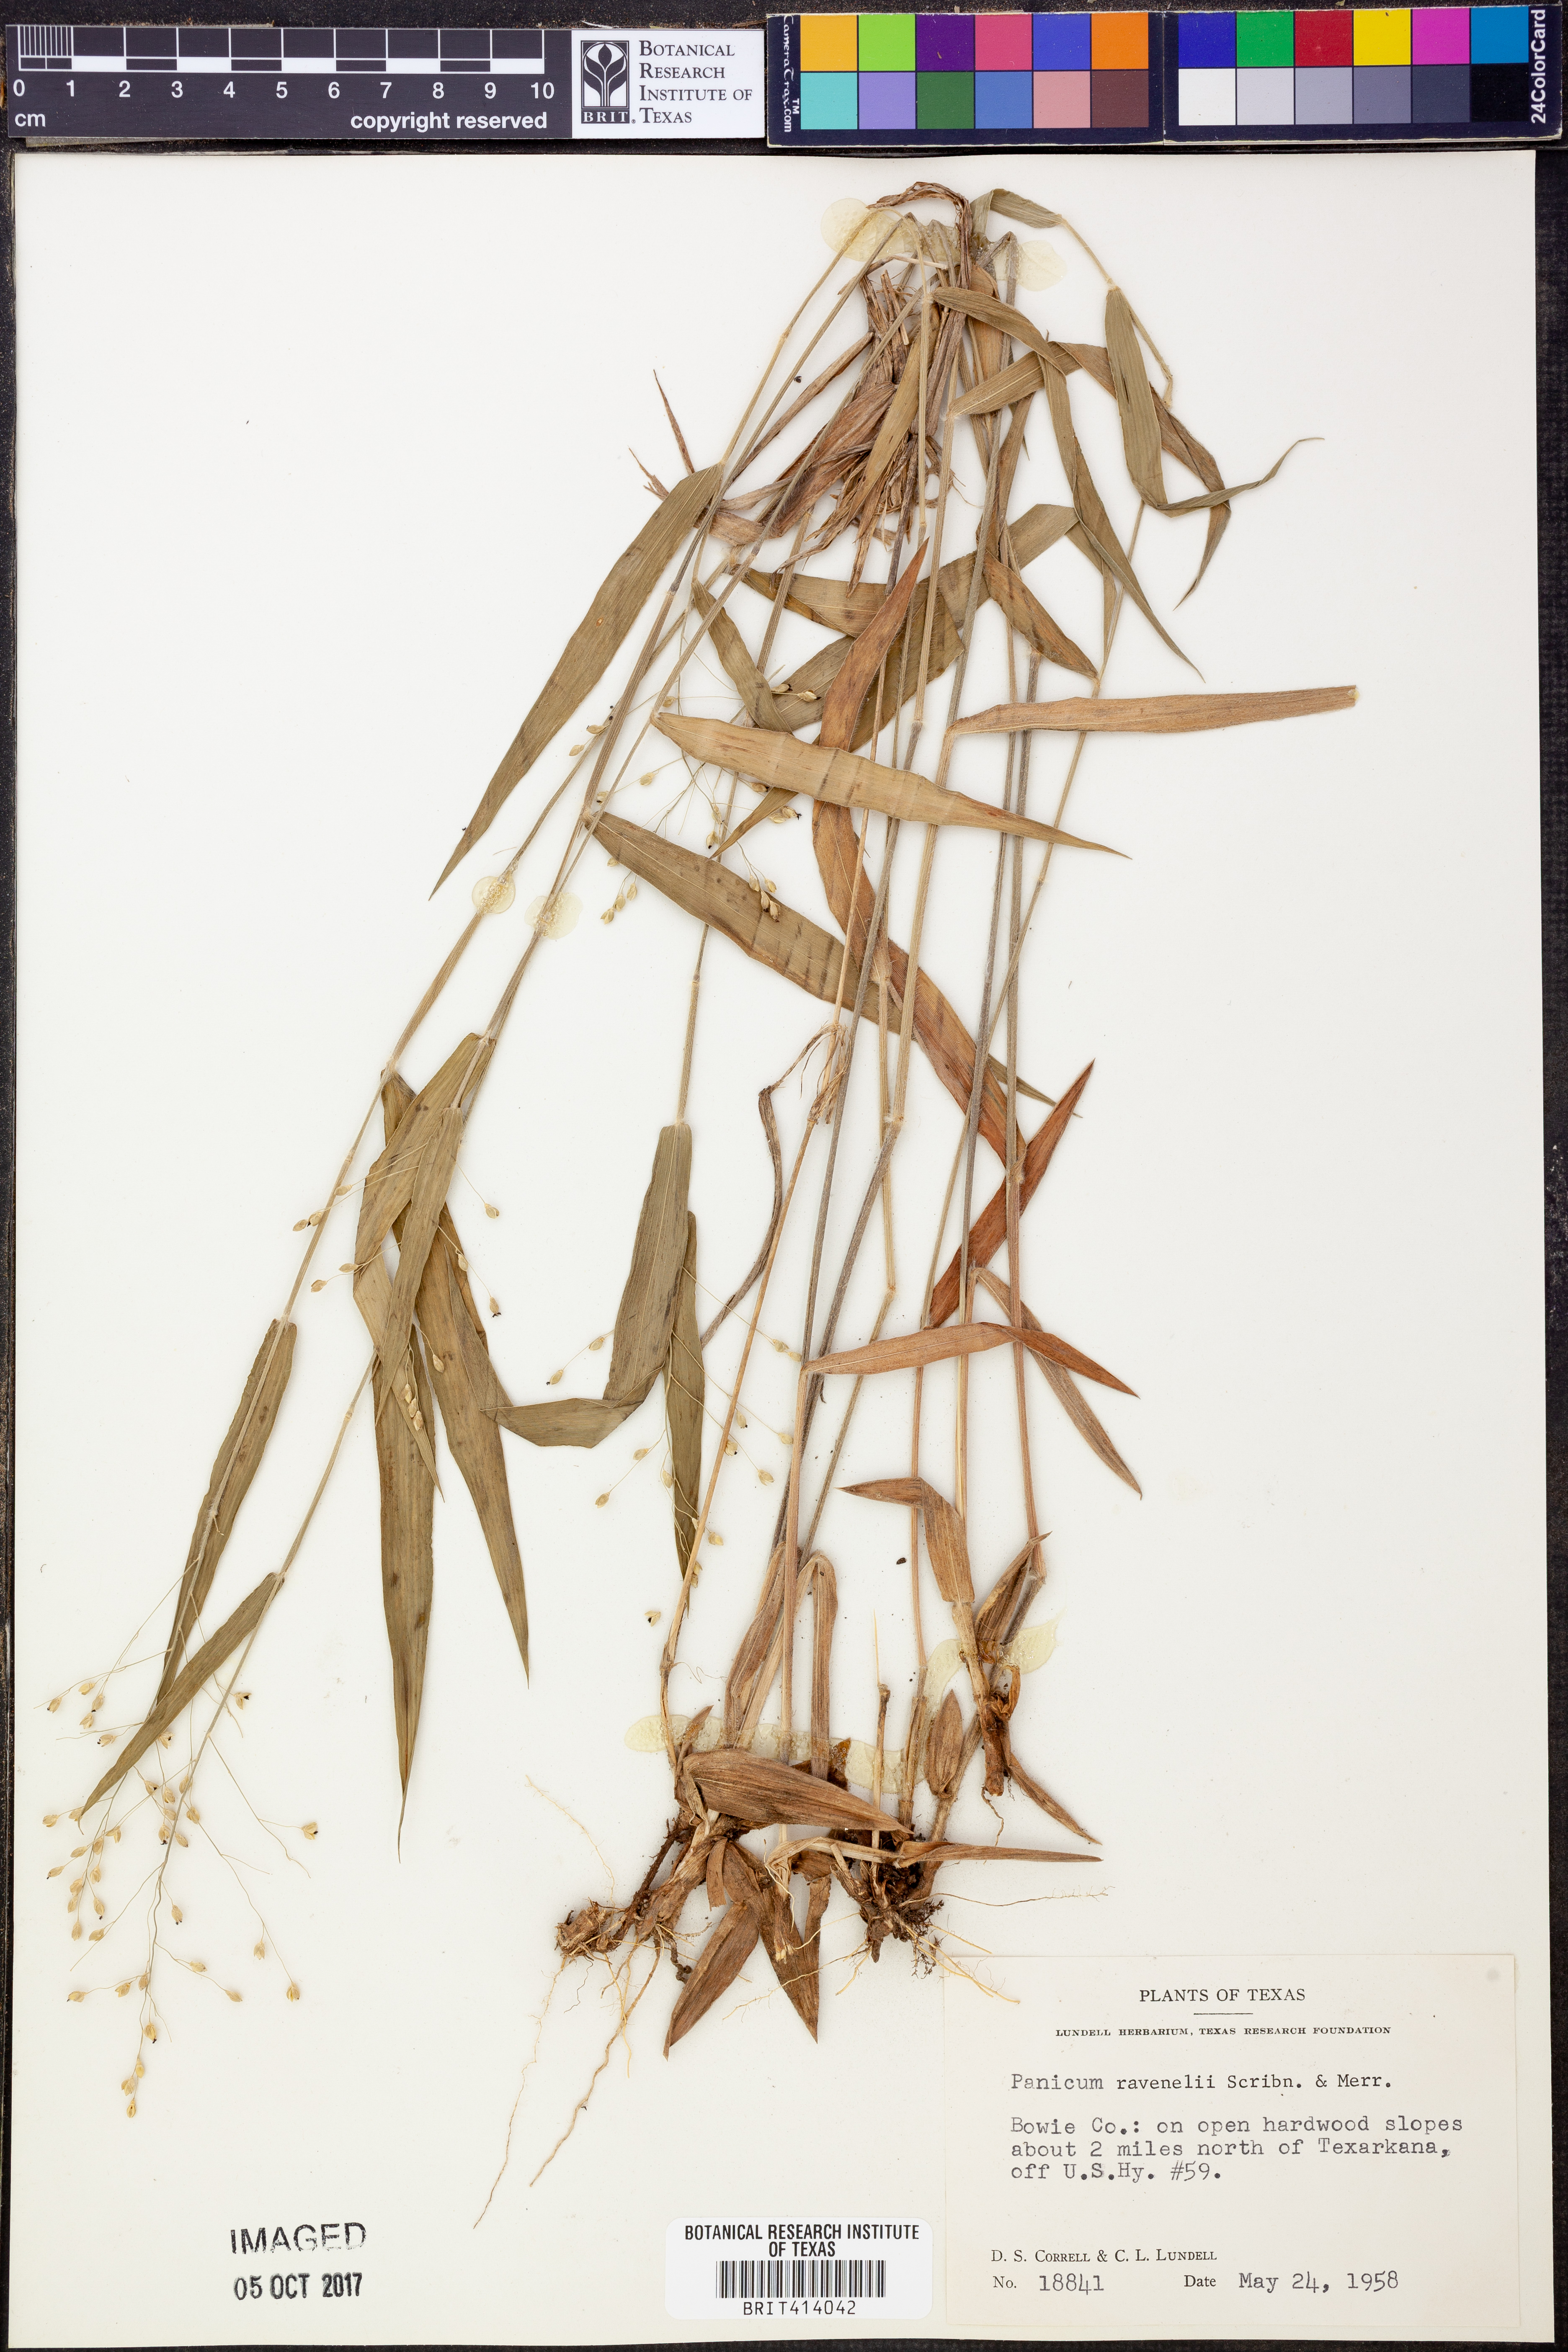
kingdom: Plantae
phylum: Tracheophyta
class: Liliopsida
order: Poales
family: Poaceae
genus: Dichanthelium
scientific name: Dichanthelium ravenelii
